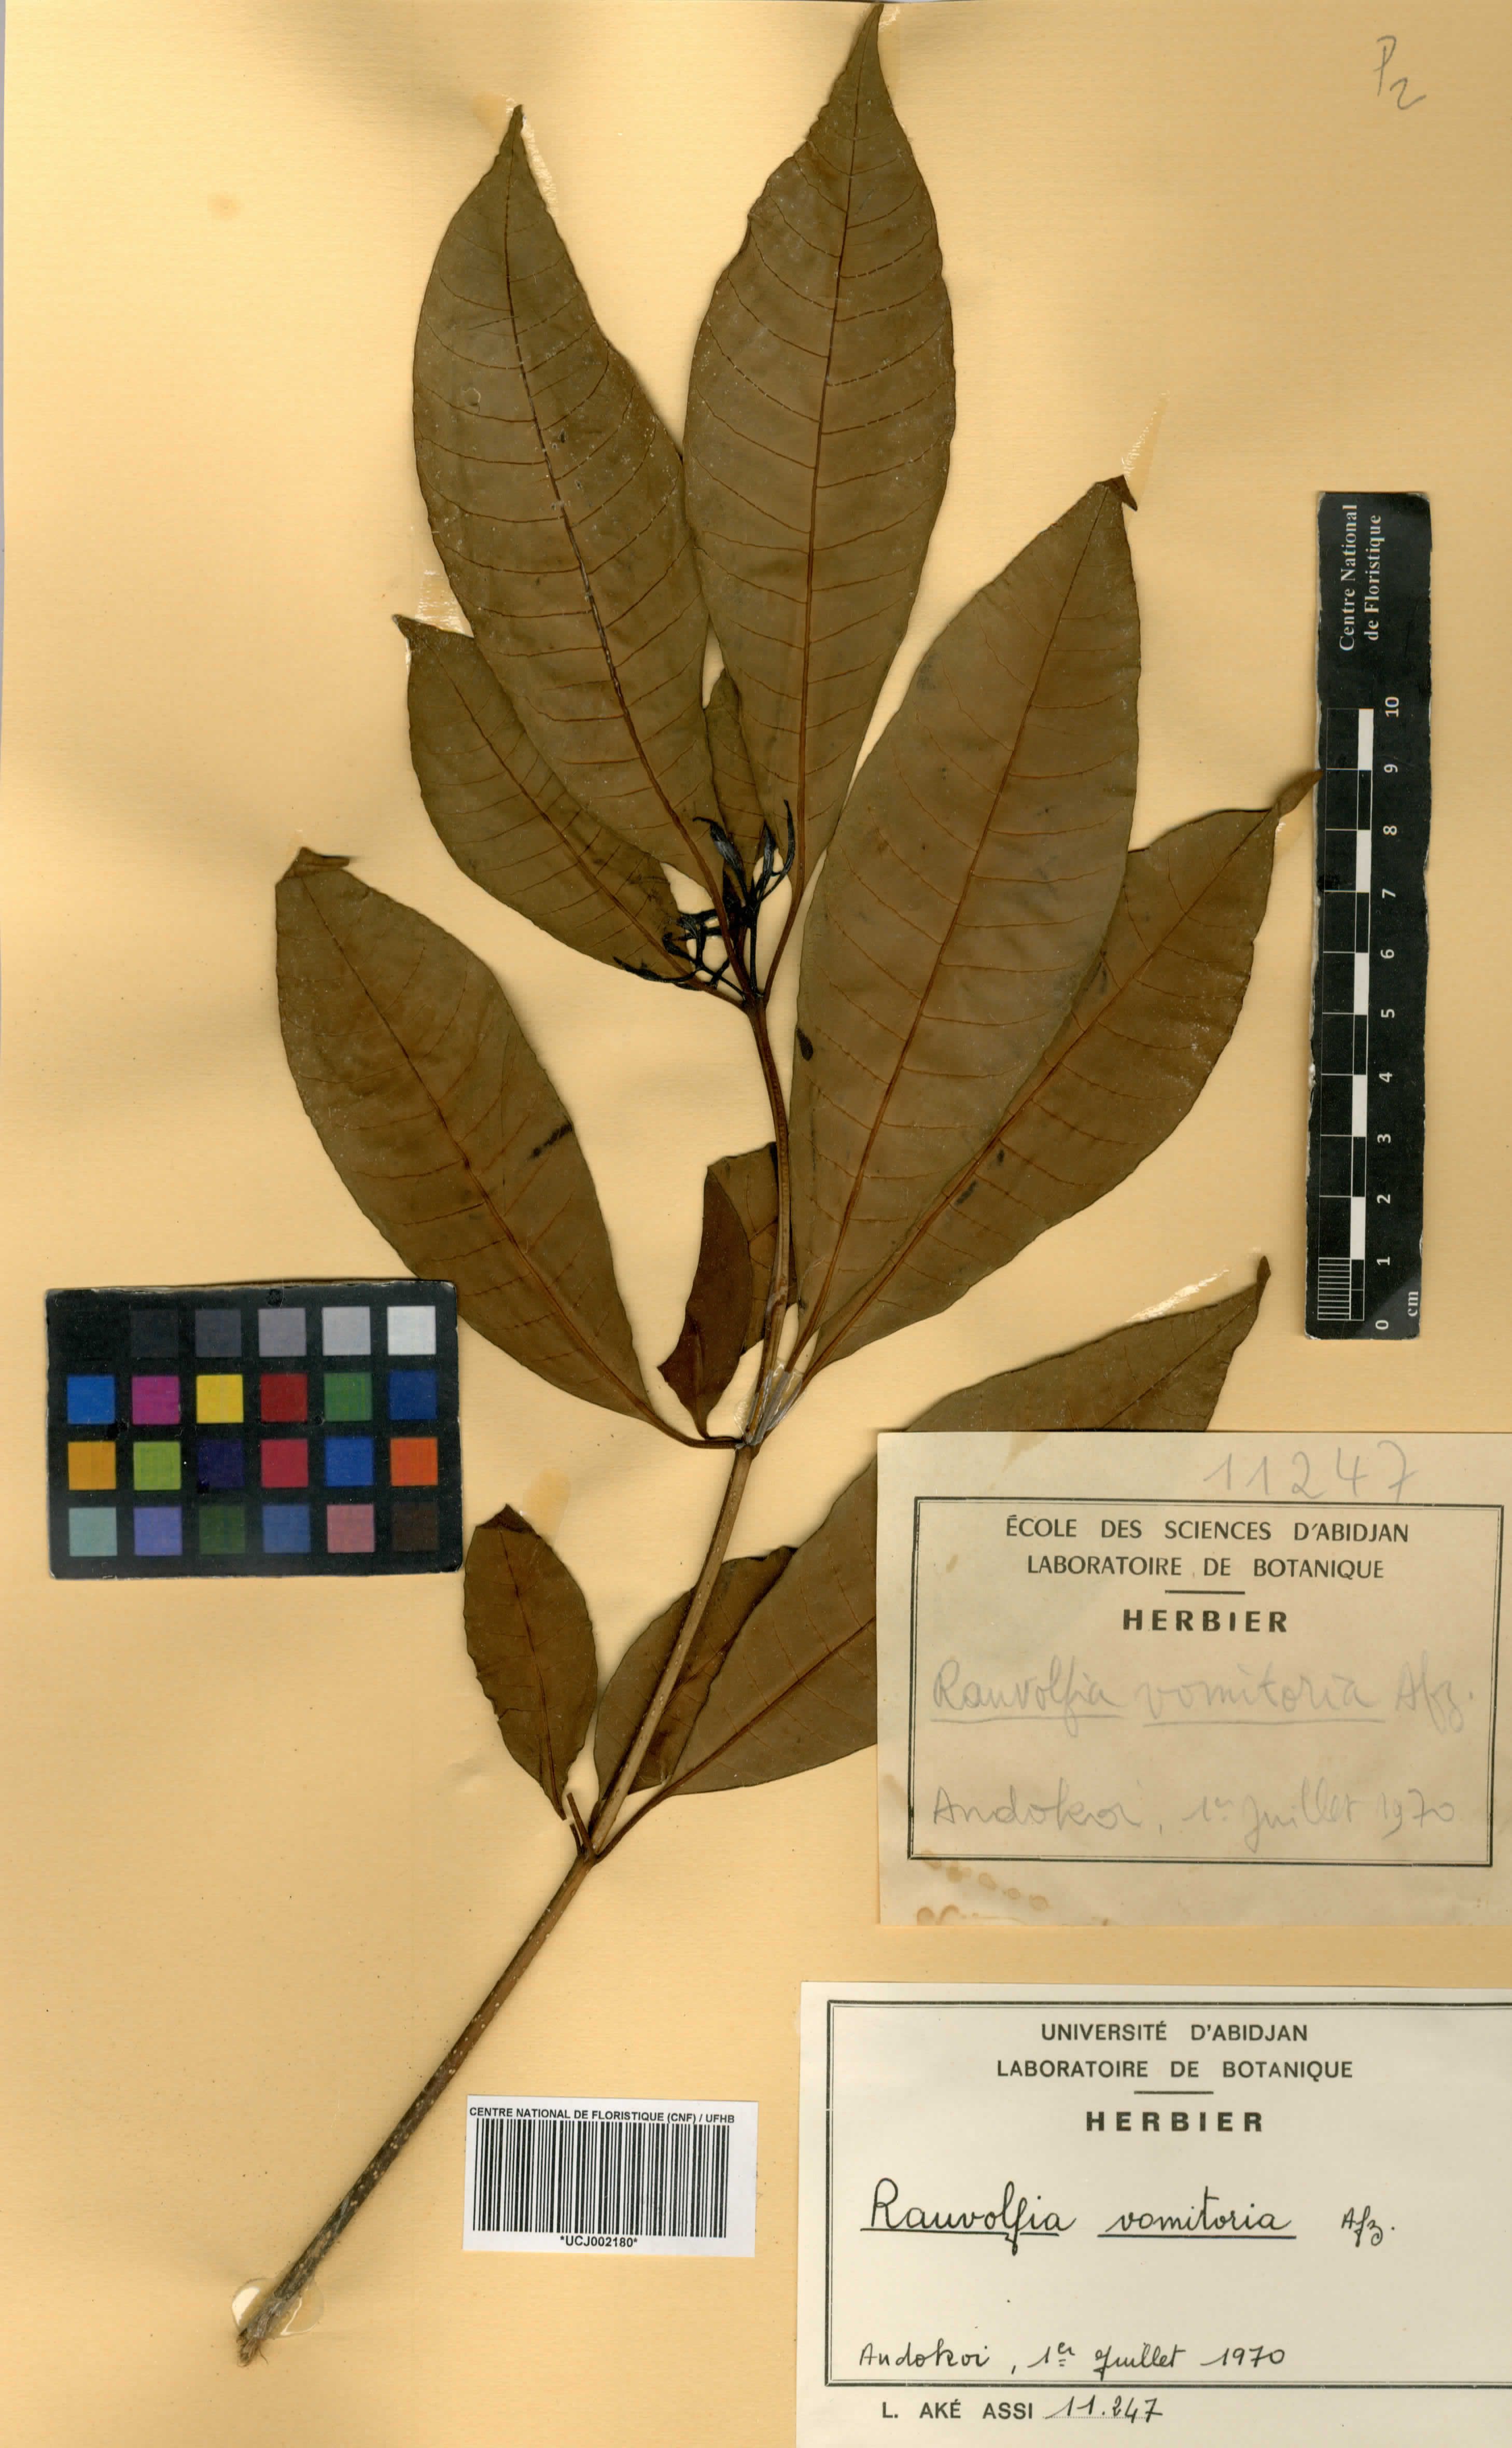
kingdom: Plantae
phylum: Tracheophyta
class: Magnoliopsida
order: Gentianales
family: Apocynaceae
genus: Rauvolfia
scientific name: Rauvolfia vomitoria
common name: Poison devil's-pepper
